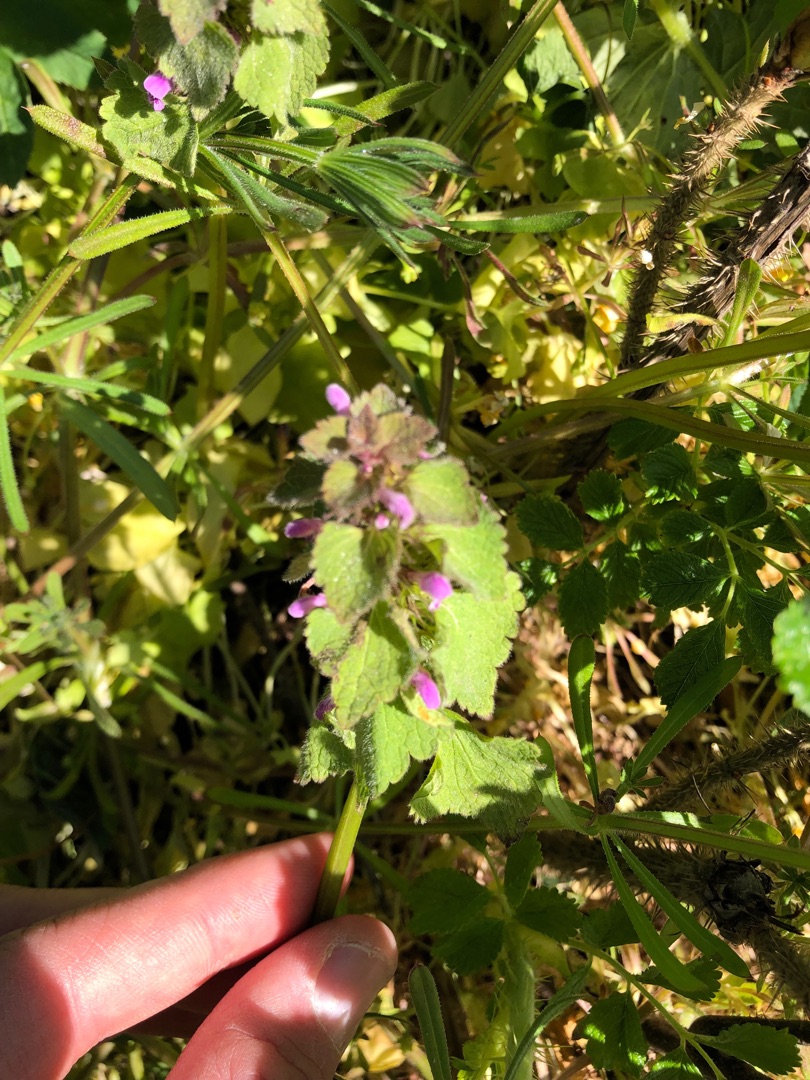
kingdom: Plantae
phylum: Tracheophyta
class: Magnoliopsida
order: Lamiales
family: Lamiaceae
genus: Lamium
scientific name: Lamium purpureum
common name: Rød tvetand
